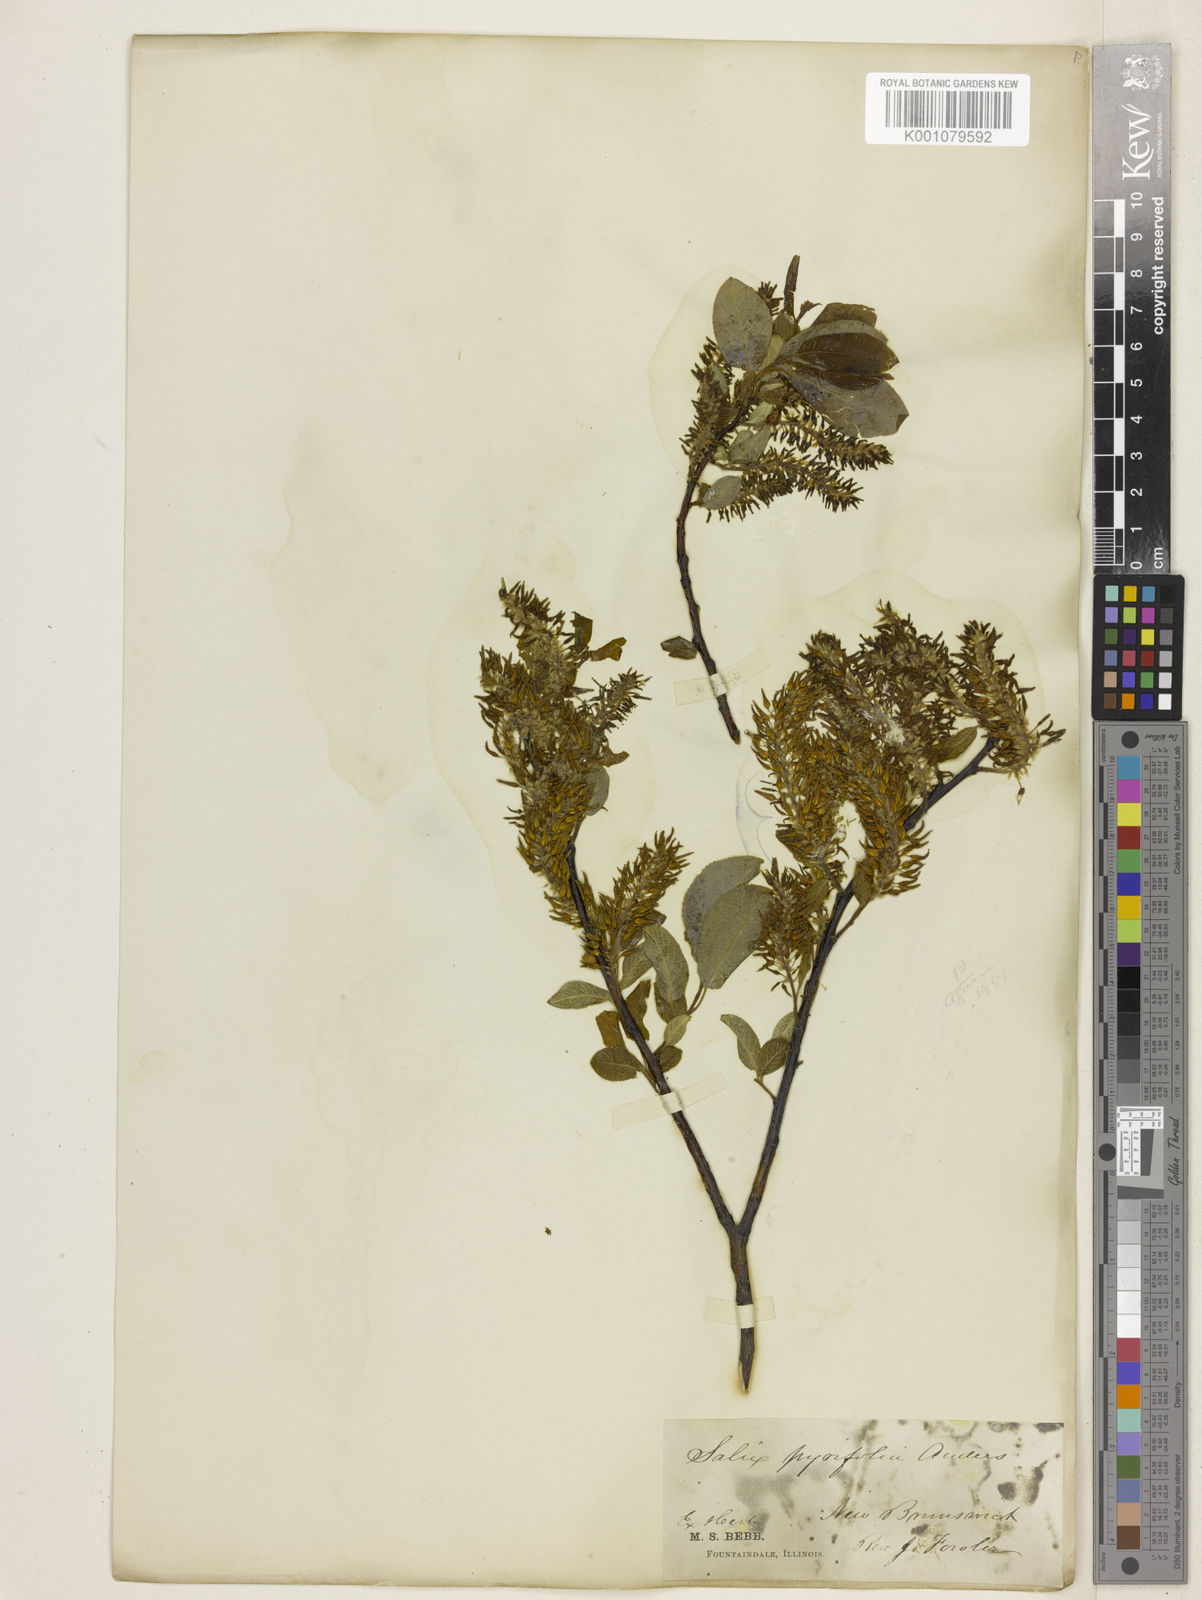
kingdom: Plantae
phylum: Tracheophyta
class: Magnoliopsida
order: Malpighiales
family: Salicaceae
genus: Salix
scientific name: Salix purpurea
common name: Purple willow
